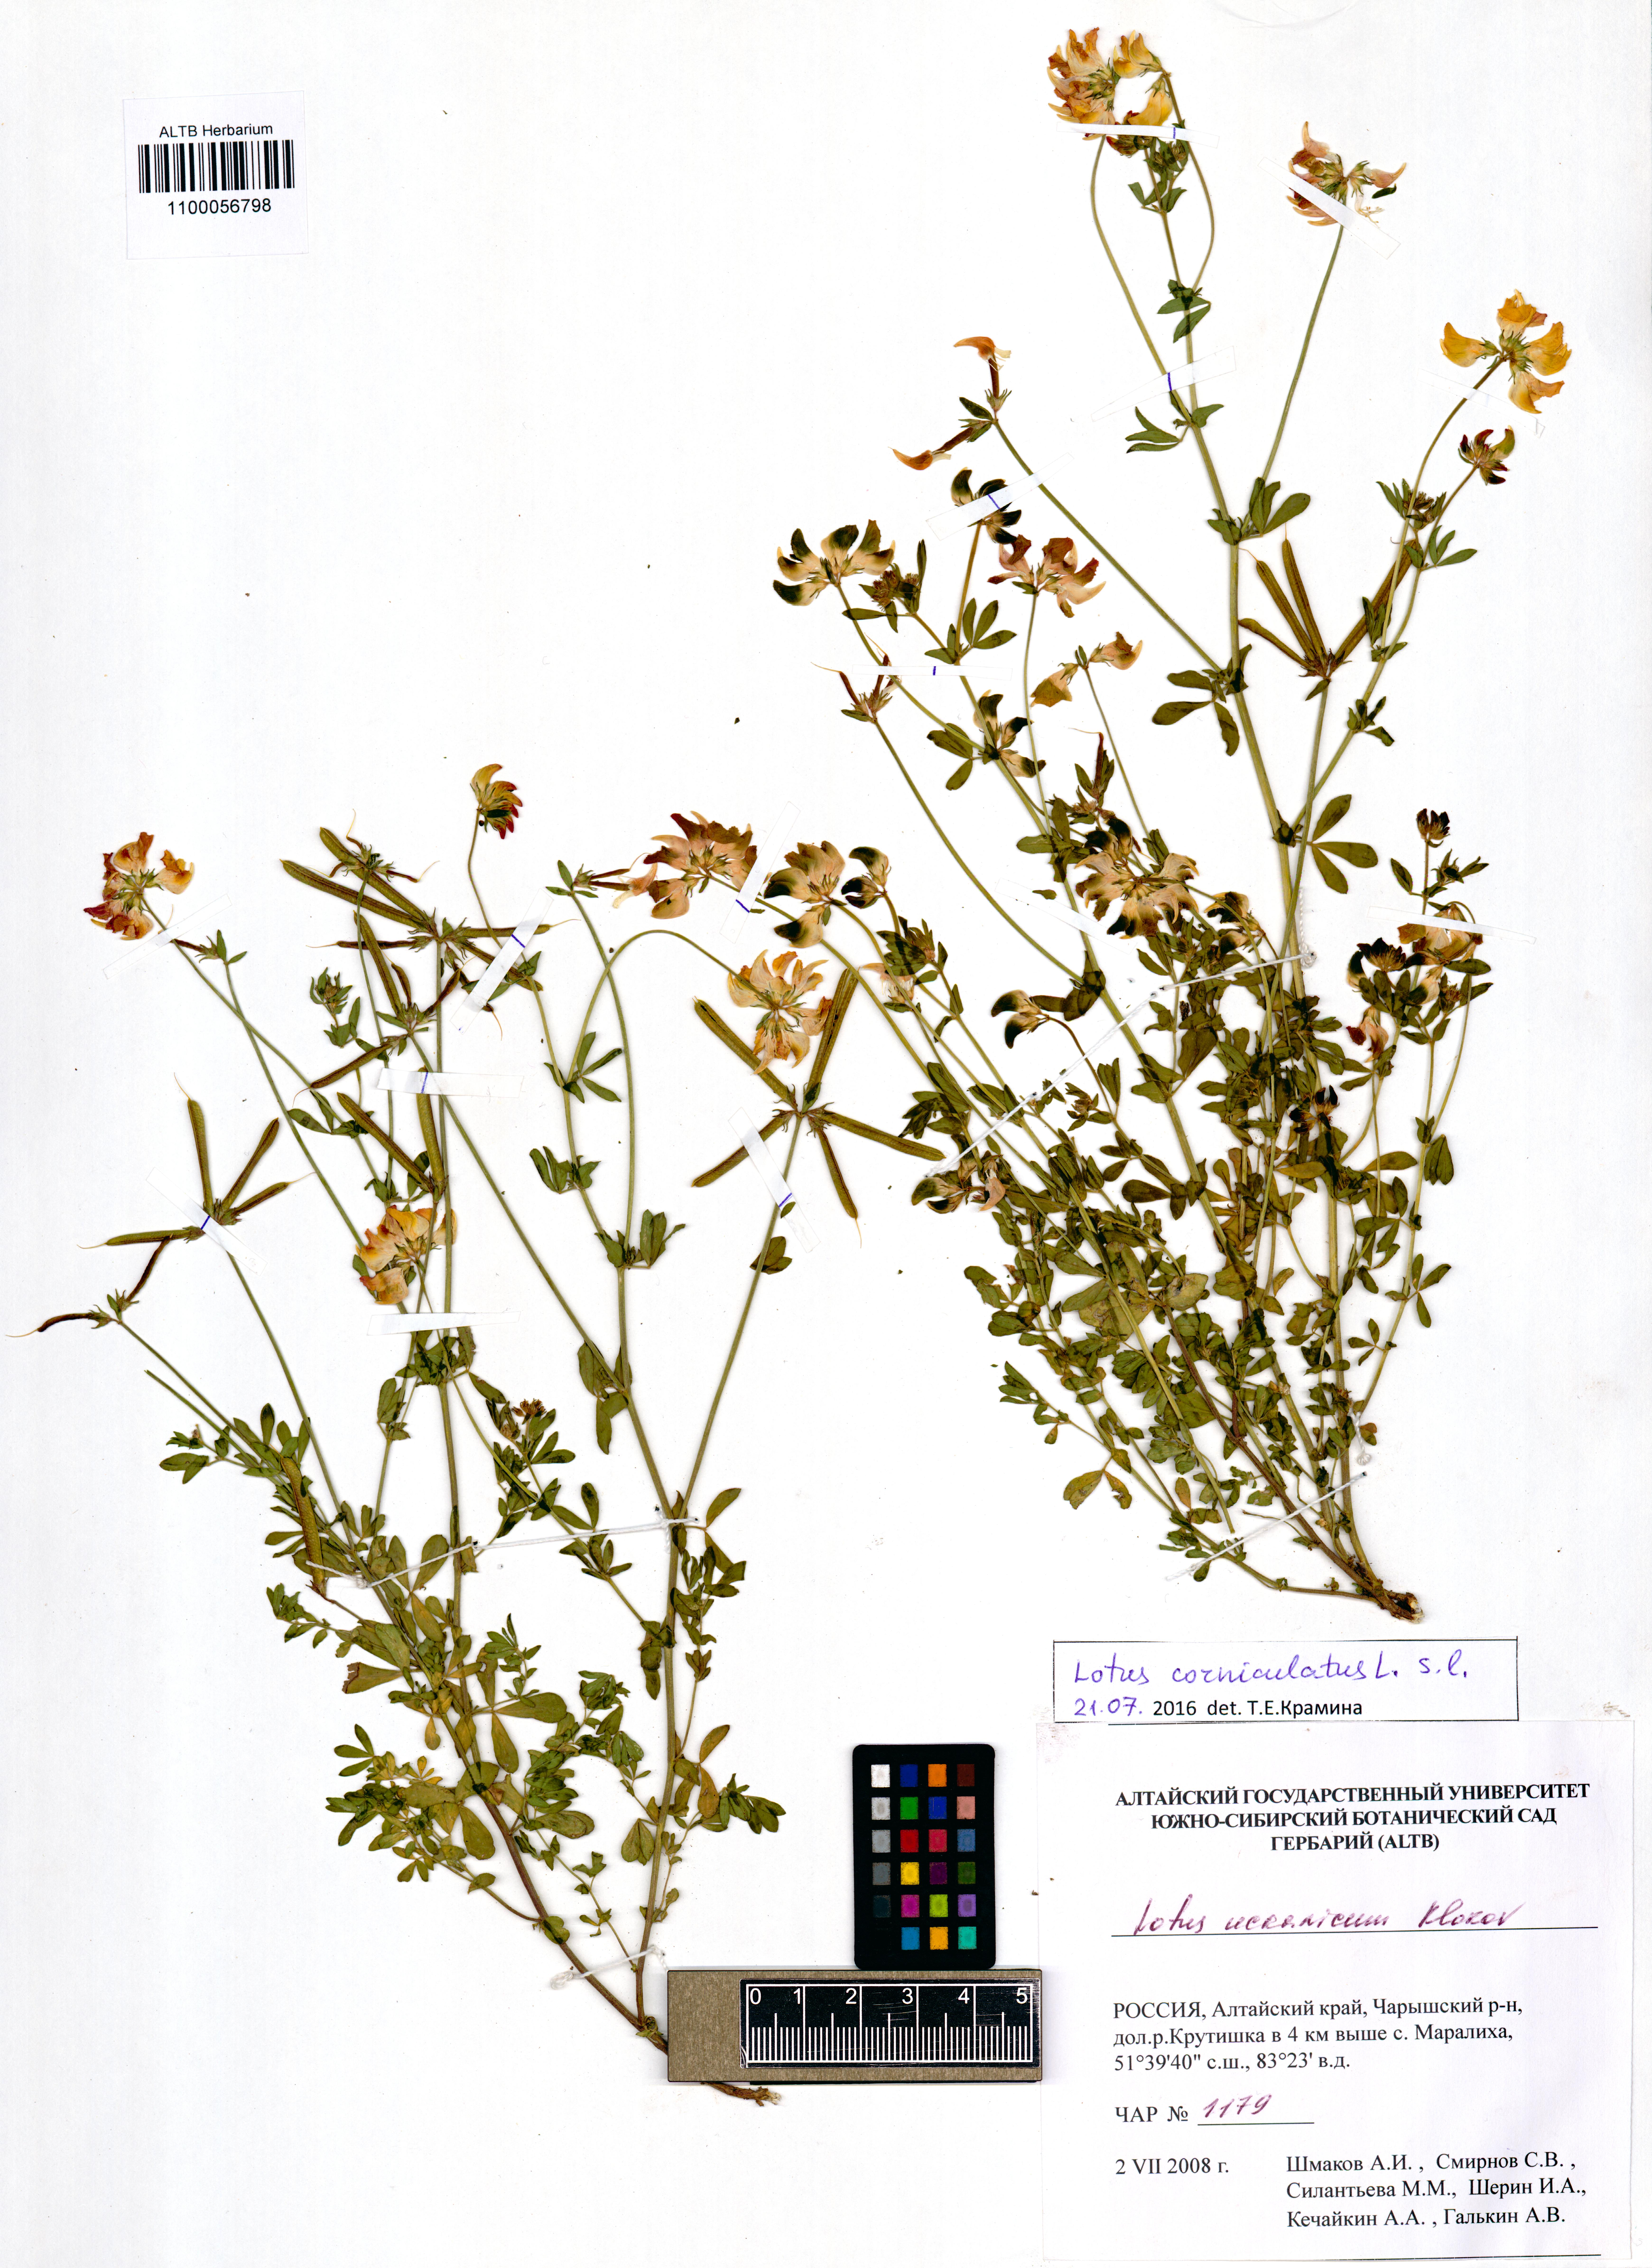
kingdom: Plantae
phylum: Tracheophyta
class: Magnoliopsida
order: Fabales
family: Fabaceae
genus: Lotus
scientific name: Lotus corniculatus
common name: Common bird's-foot-trefoil
